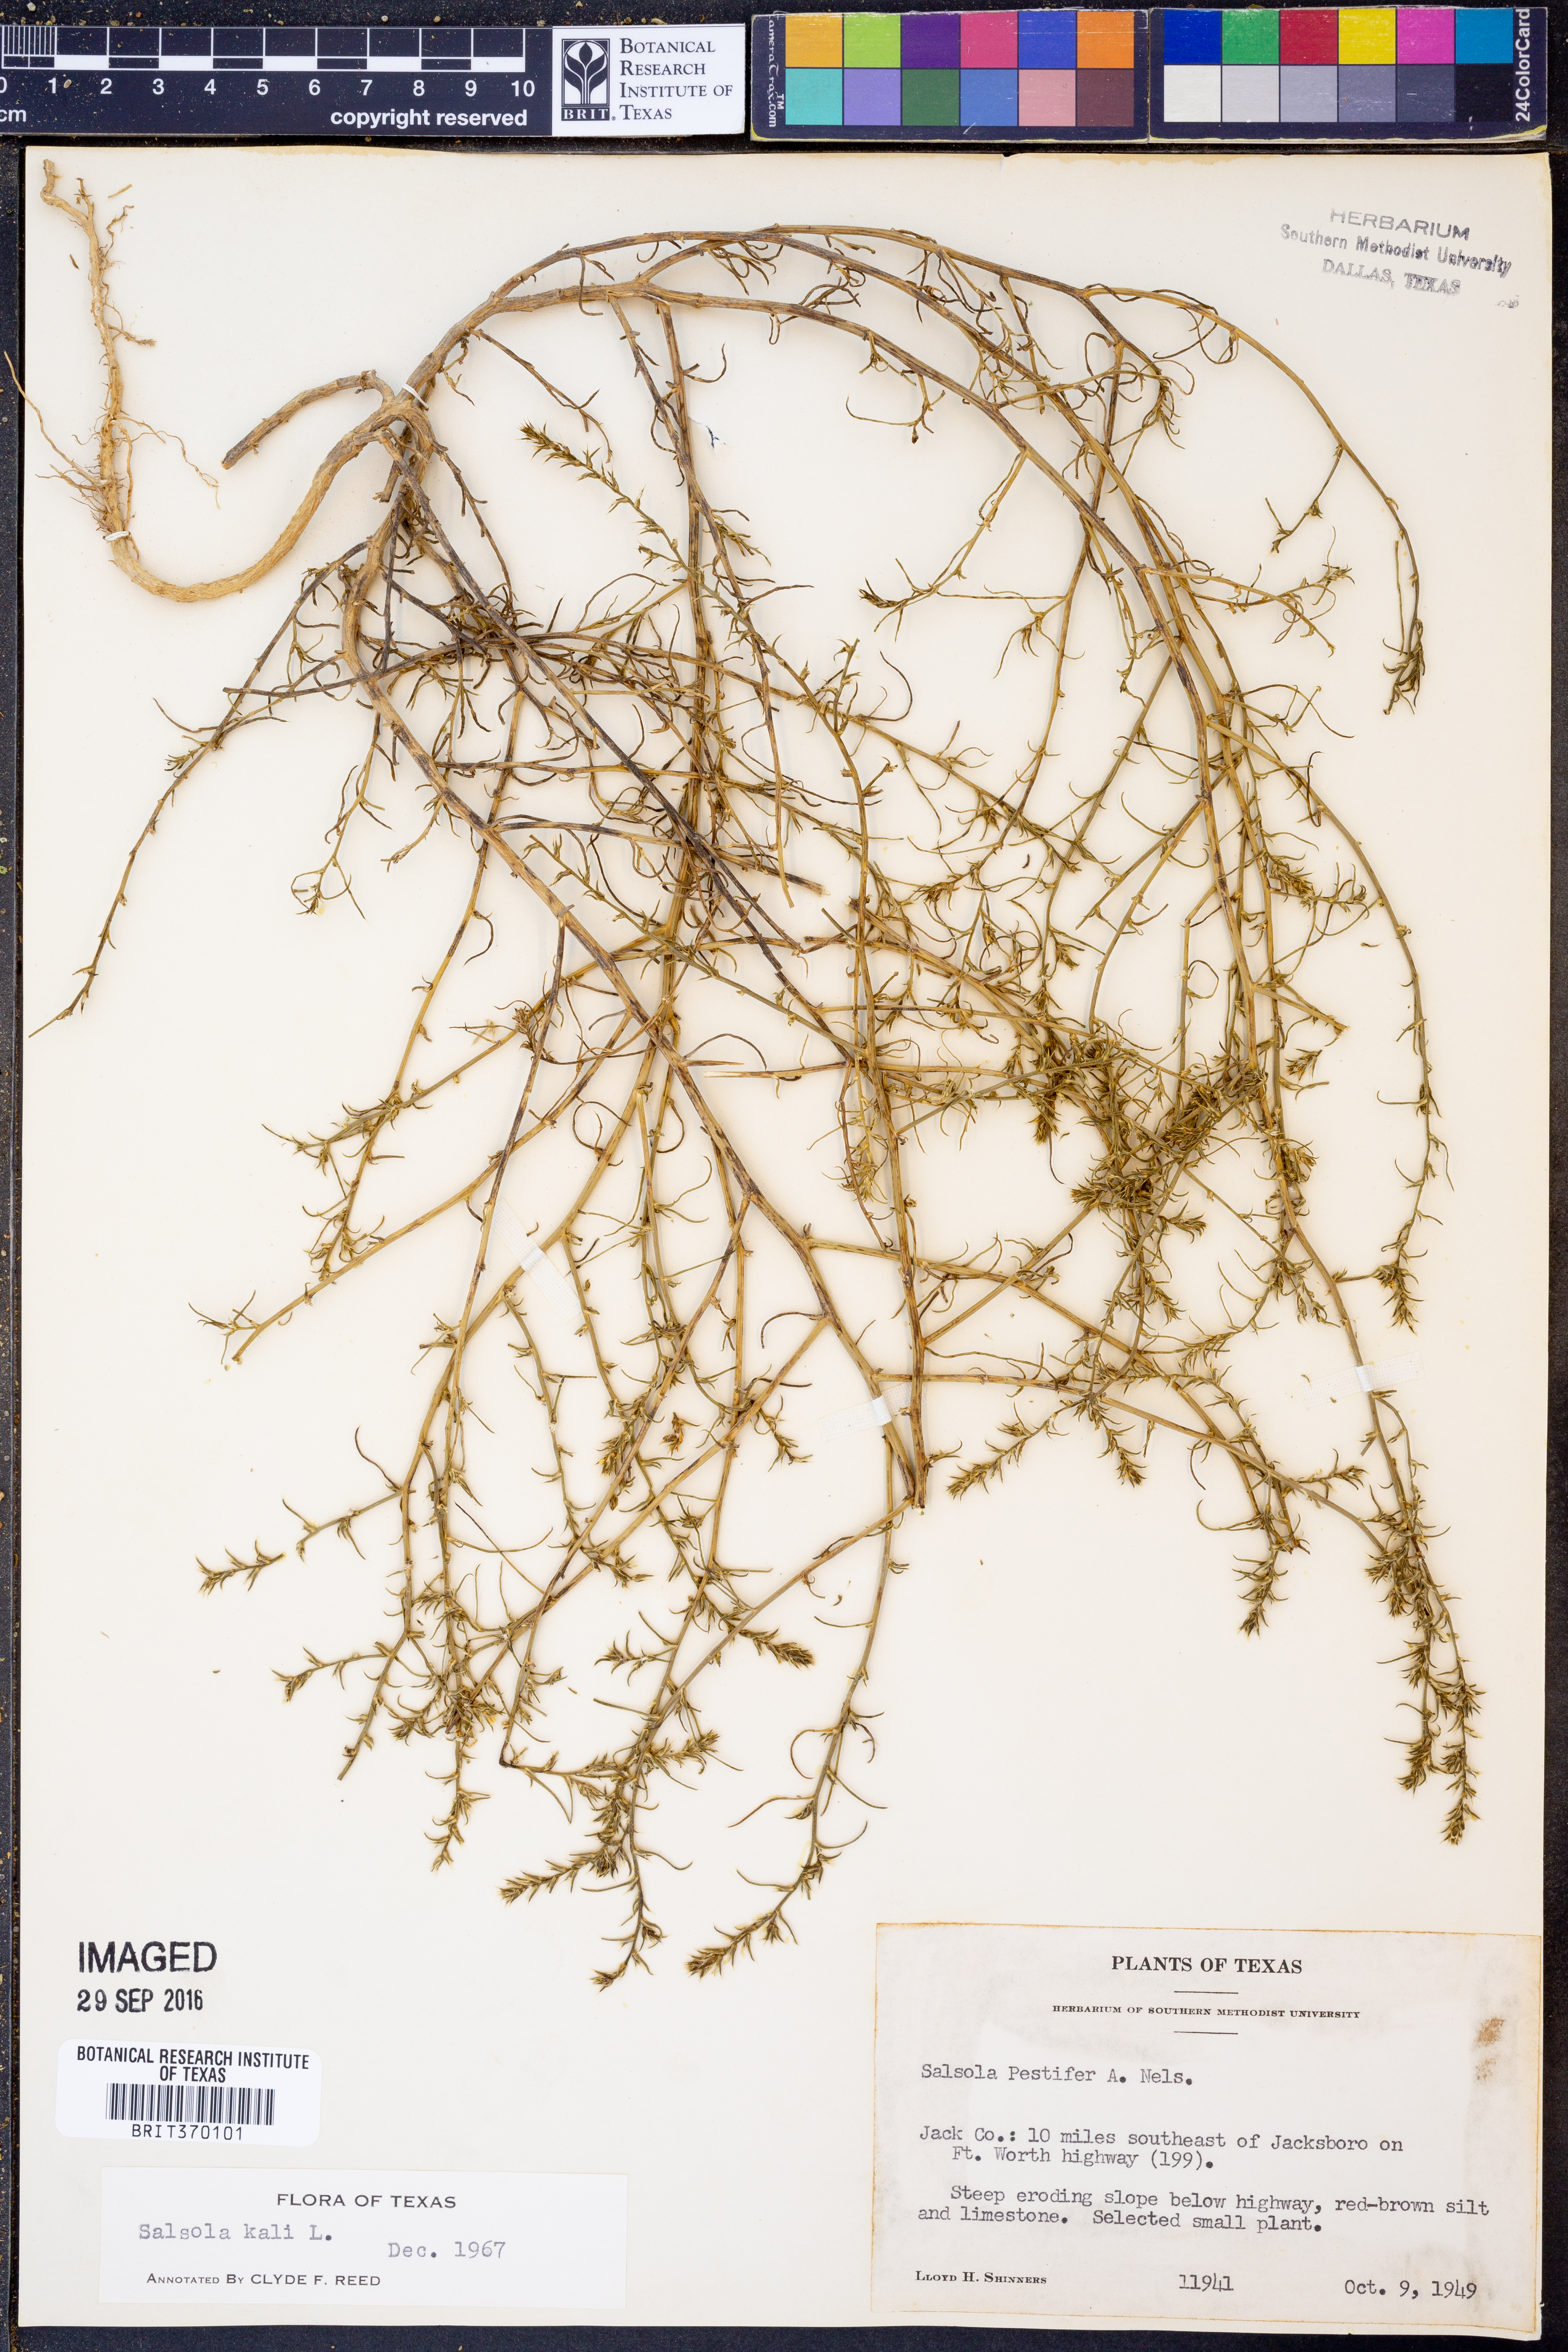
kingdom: Plantae
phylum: Tracheophyta
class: Magnoliopsida
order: Caryophyllales
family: Amaranthaceae
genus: Salsola
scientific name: Salsola tragus
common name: Prickly russian thistle
